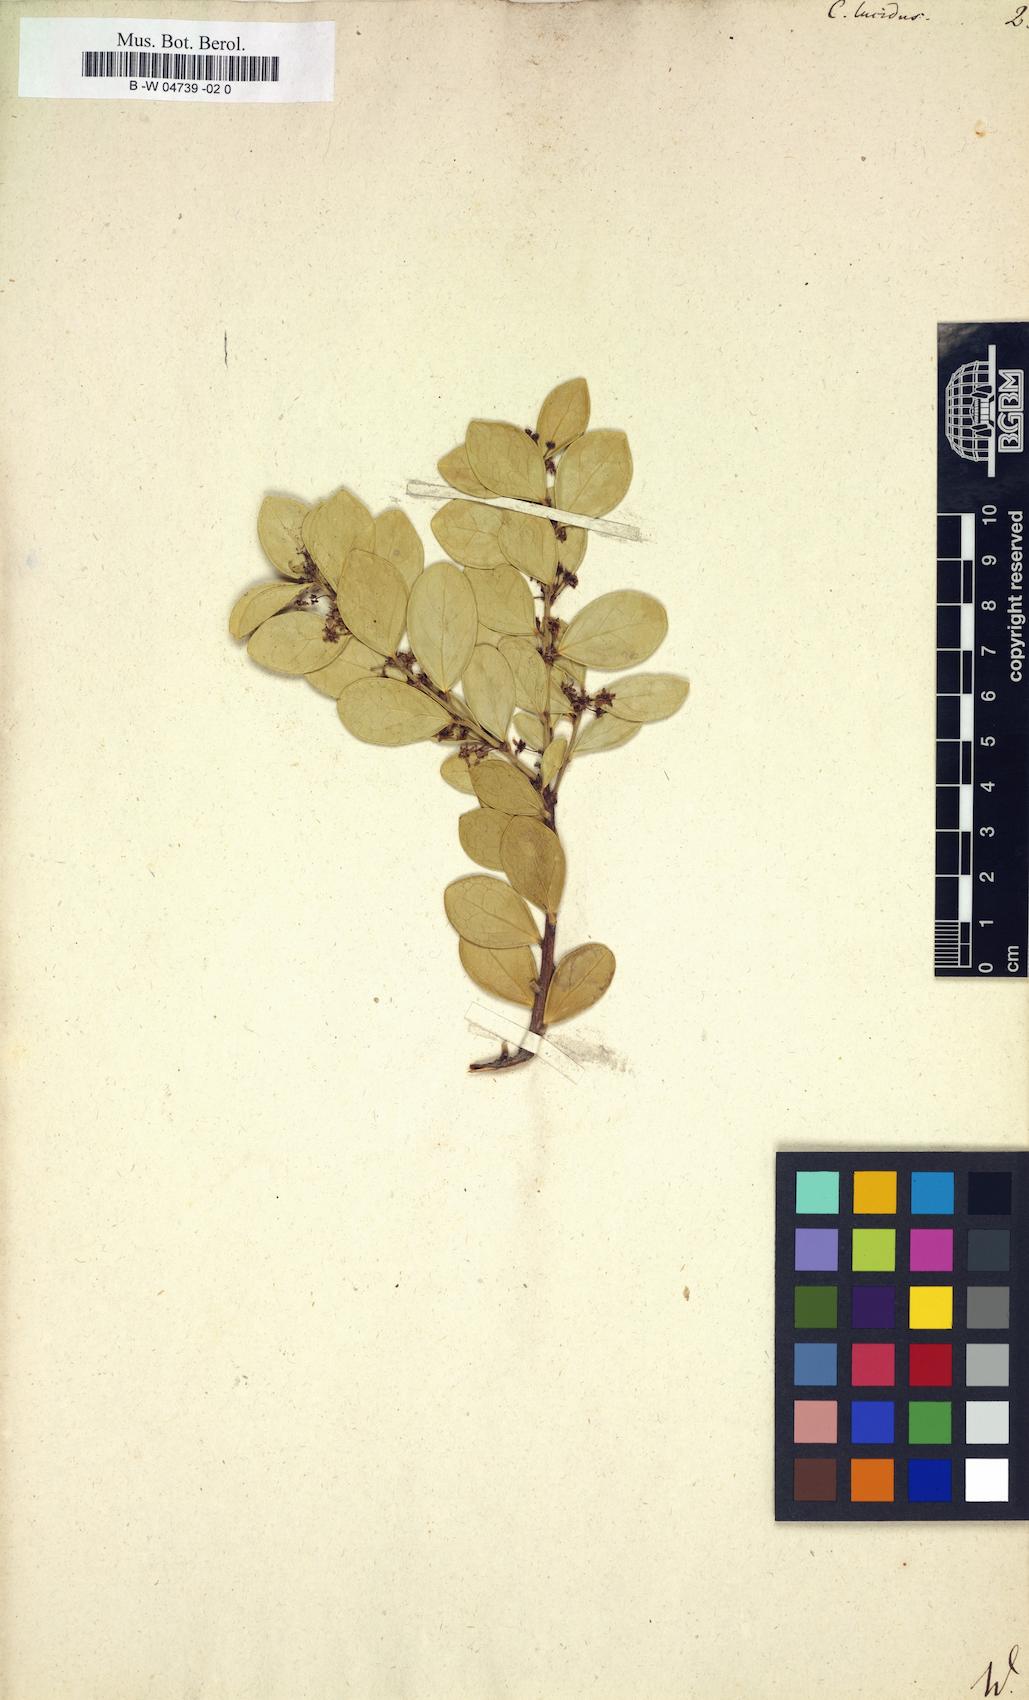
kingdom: Plantae
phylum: Tracheophyta
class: Magnoliopsida
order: Celastrales
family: Celastraceae
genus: Gymnosporia
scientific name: Gymnosporia lucida
